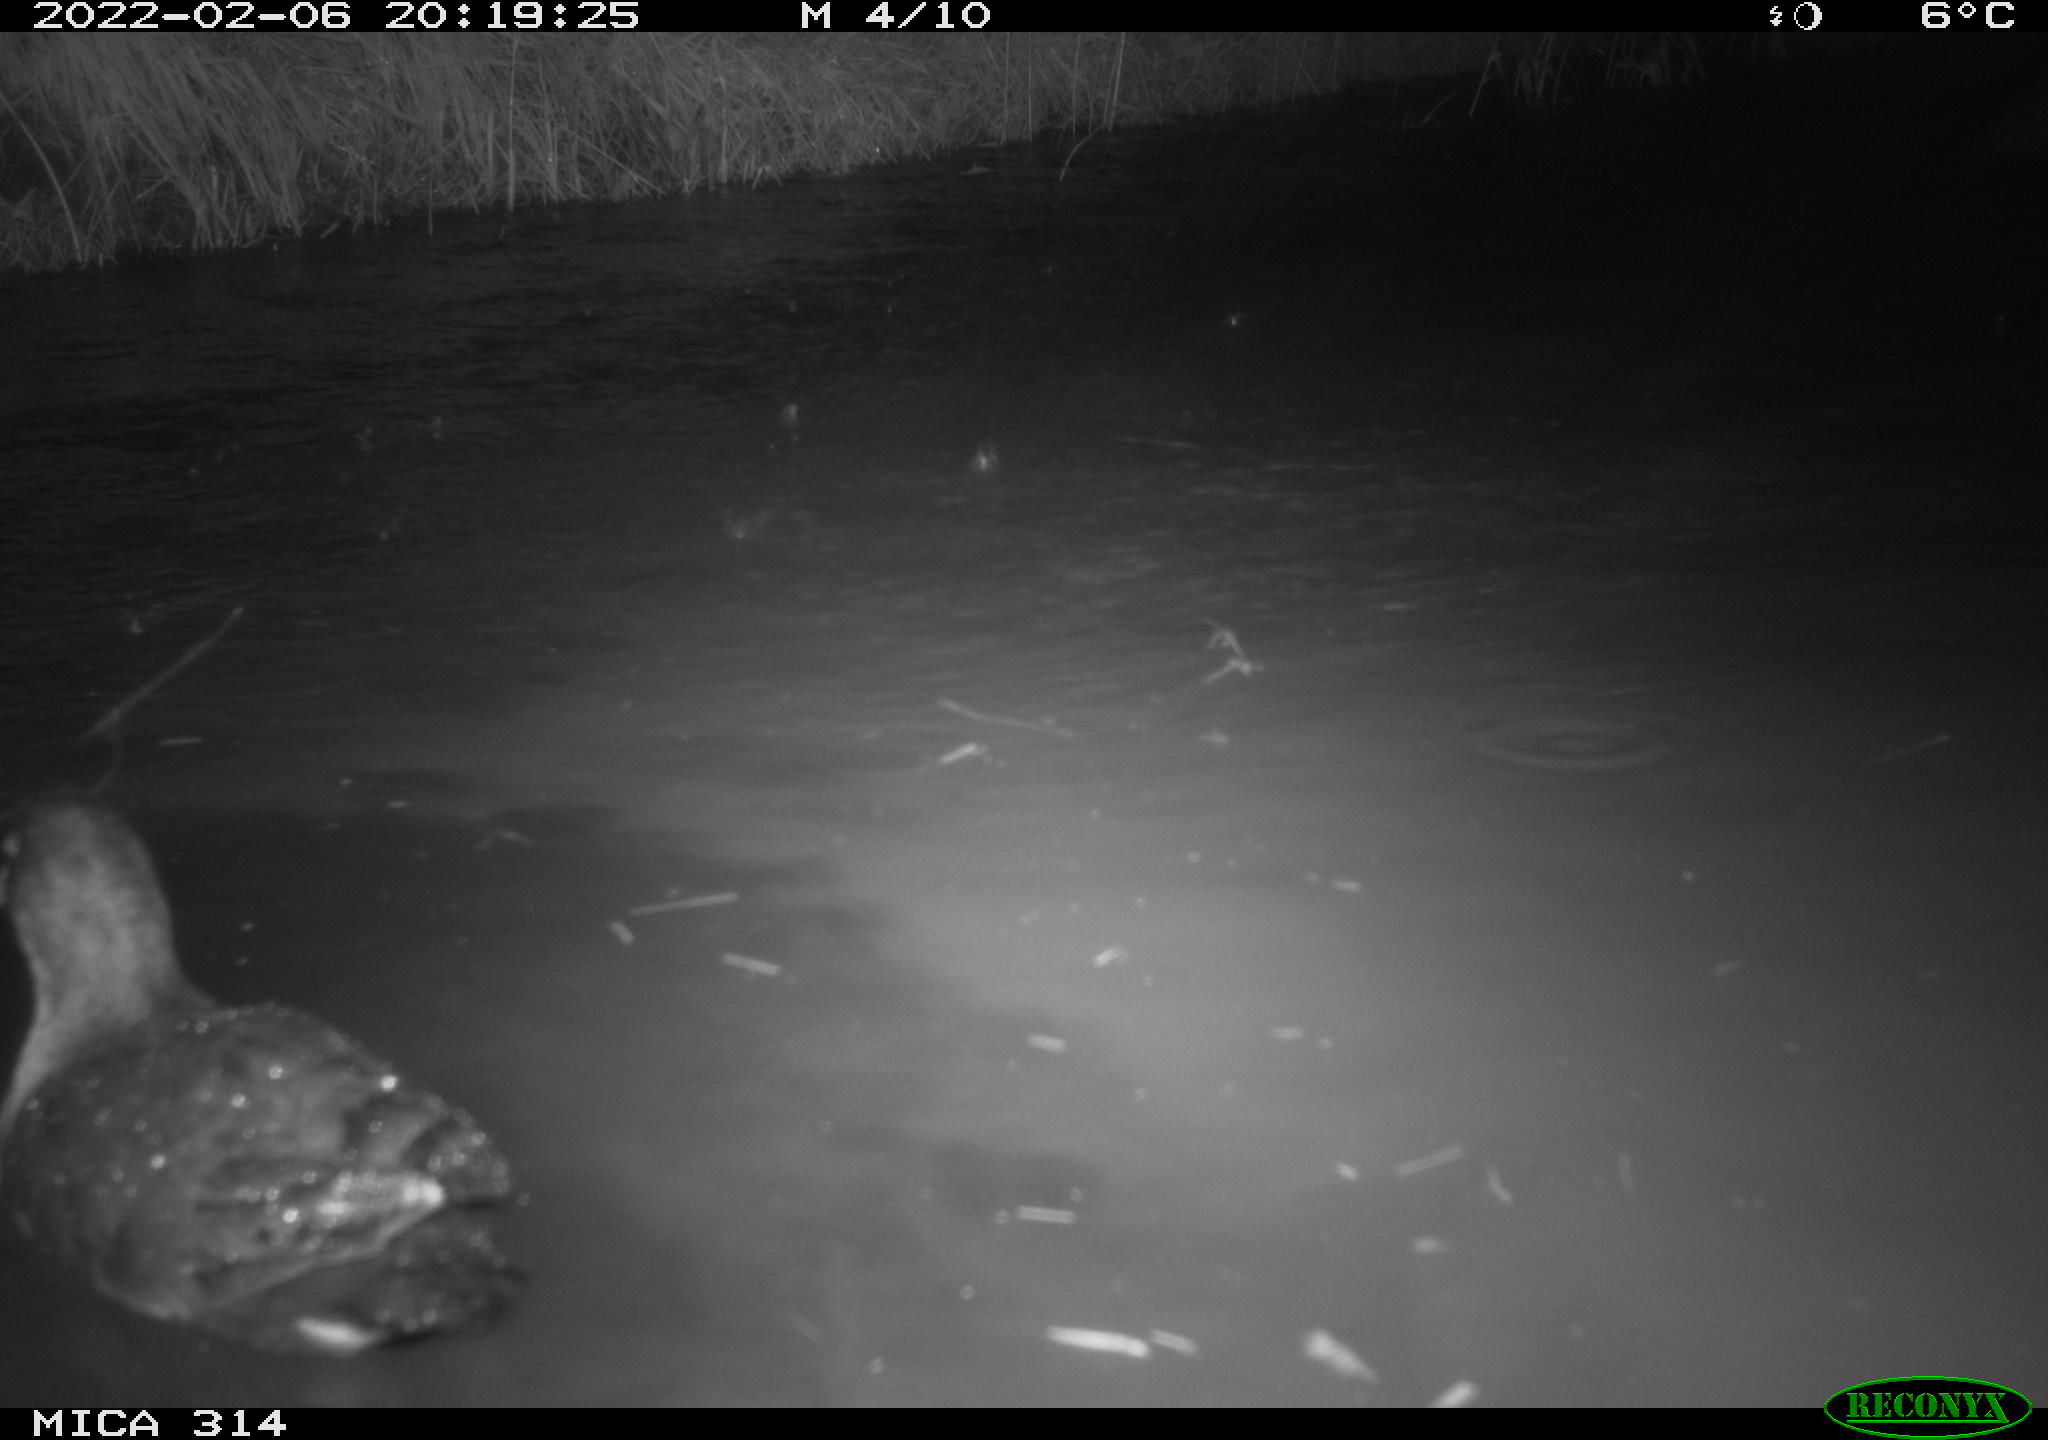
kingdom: Animalia
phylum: Chordata
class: Aves
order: Gruiformes
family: Rallidae
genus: Gallinula
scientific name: Gallinula chloropus
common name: Common moorhen
